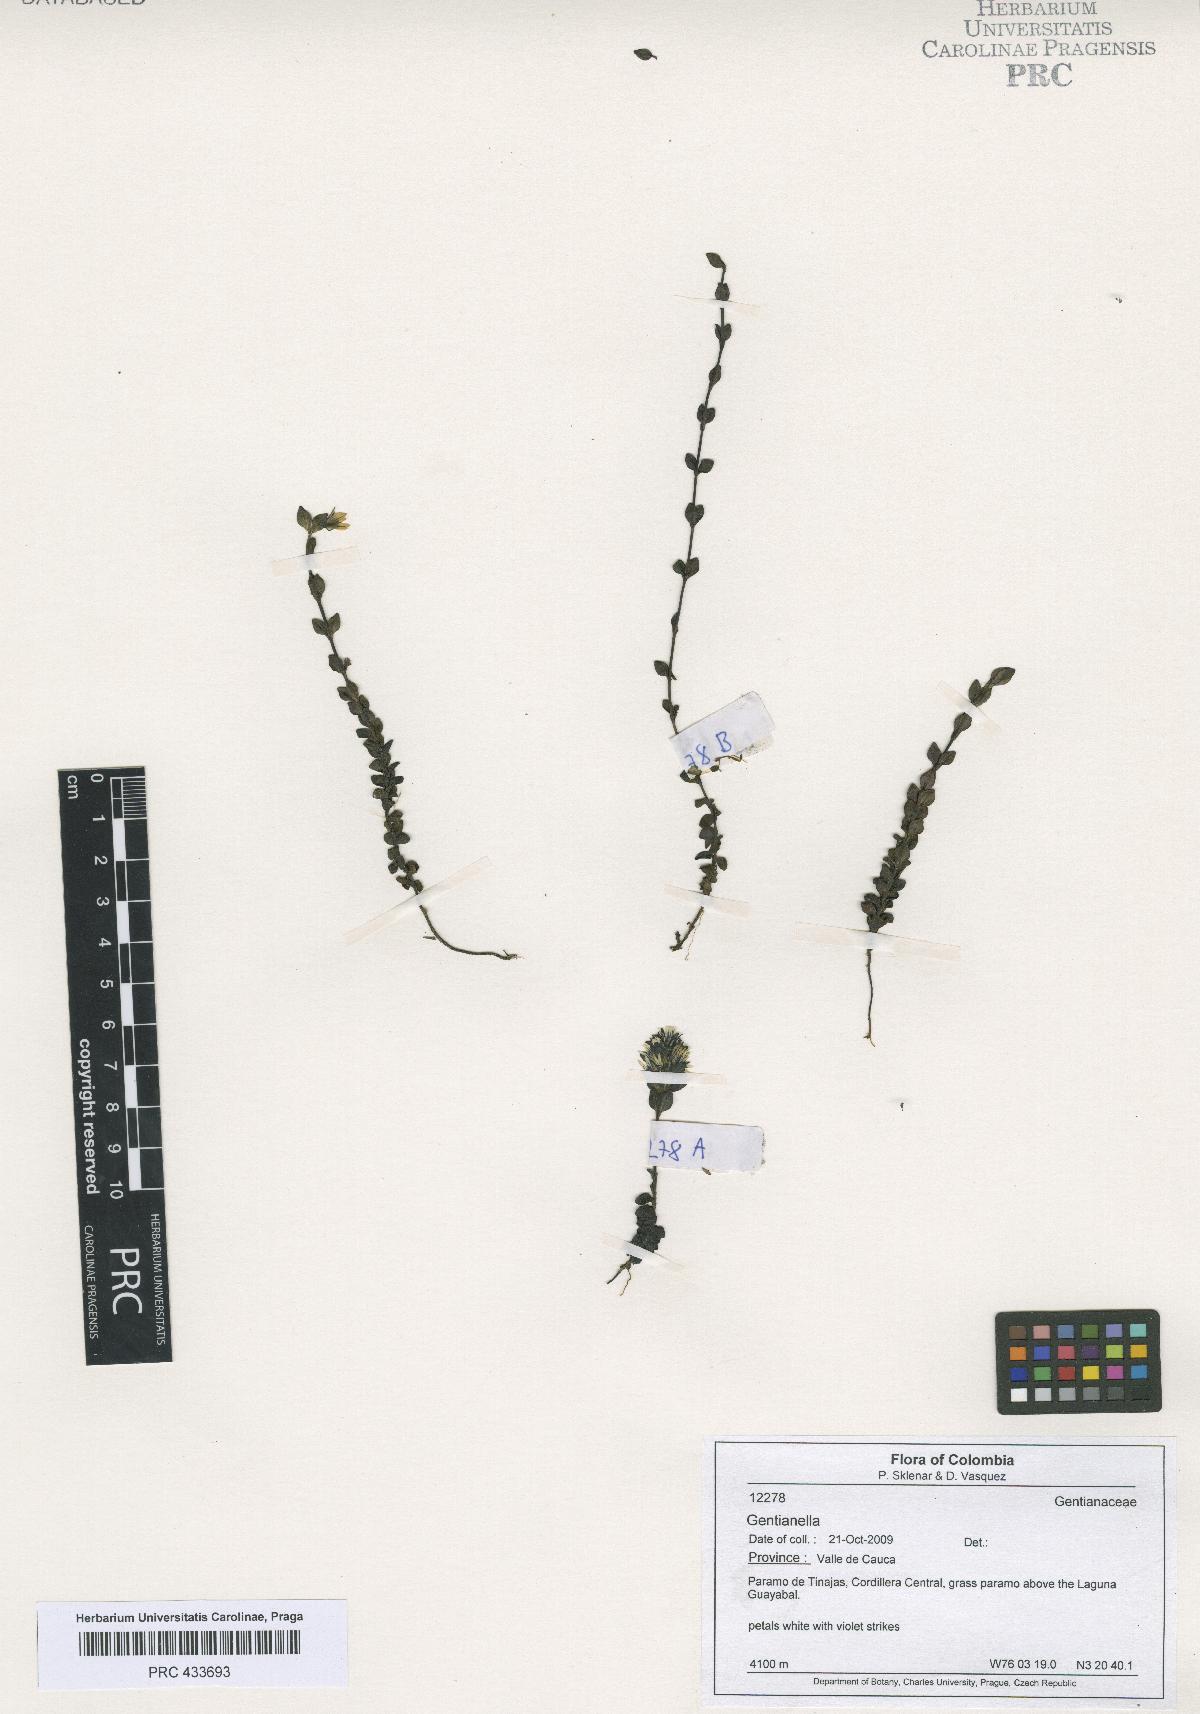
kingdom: Plantae
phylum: Tracheophyta
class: Magnoliopsida
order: Gentianales
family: Gentianaceae
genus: Gentianella
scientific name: Gentianella
